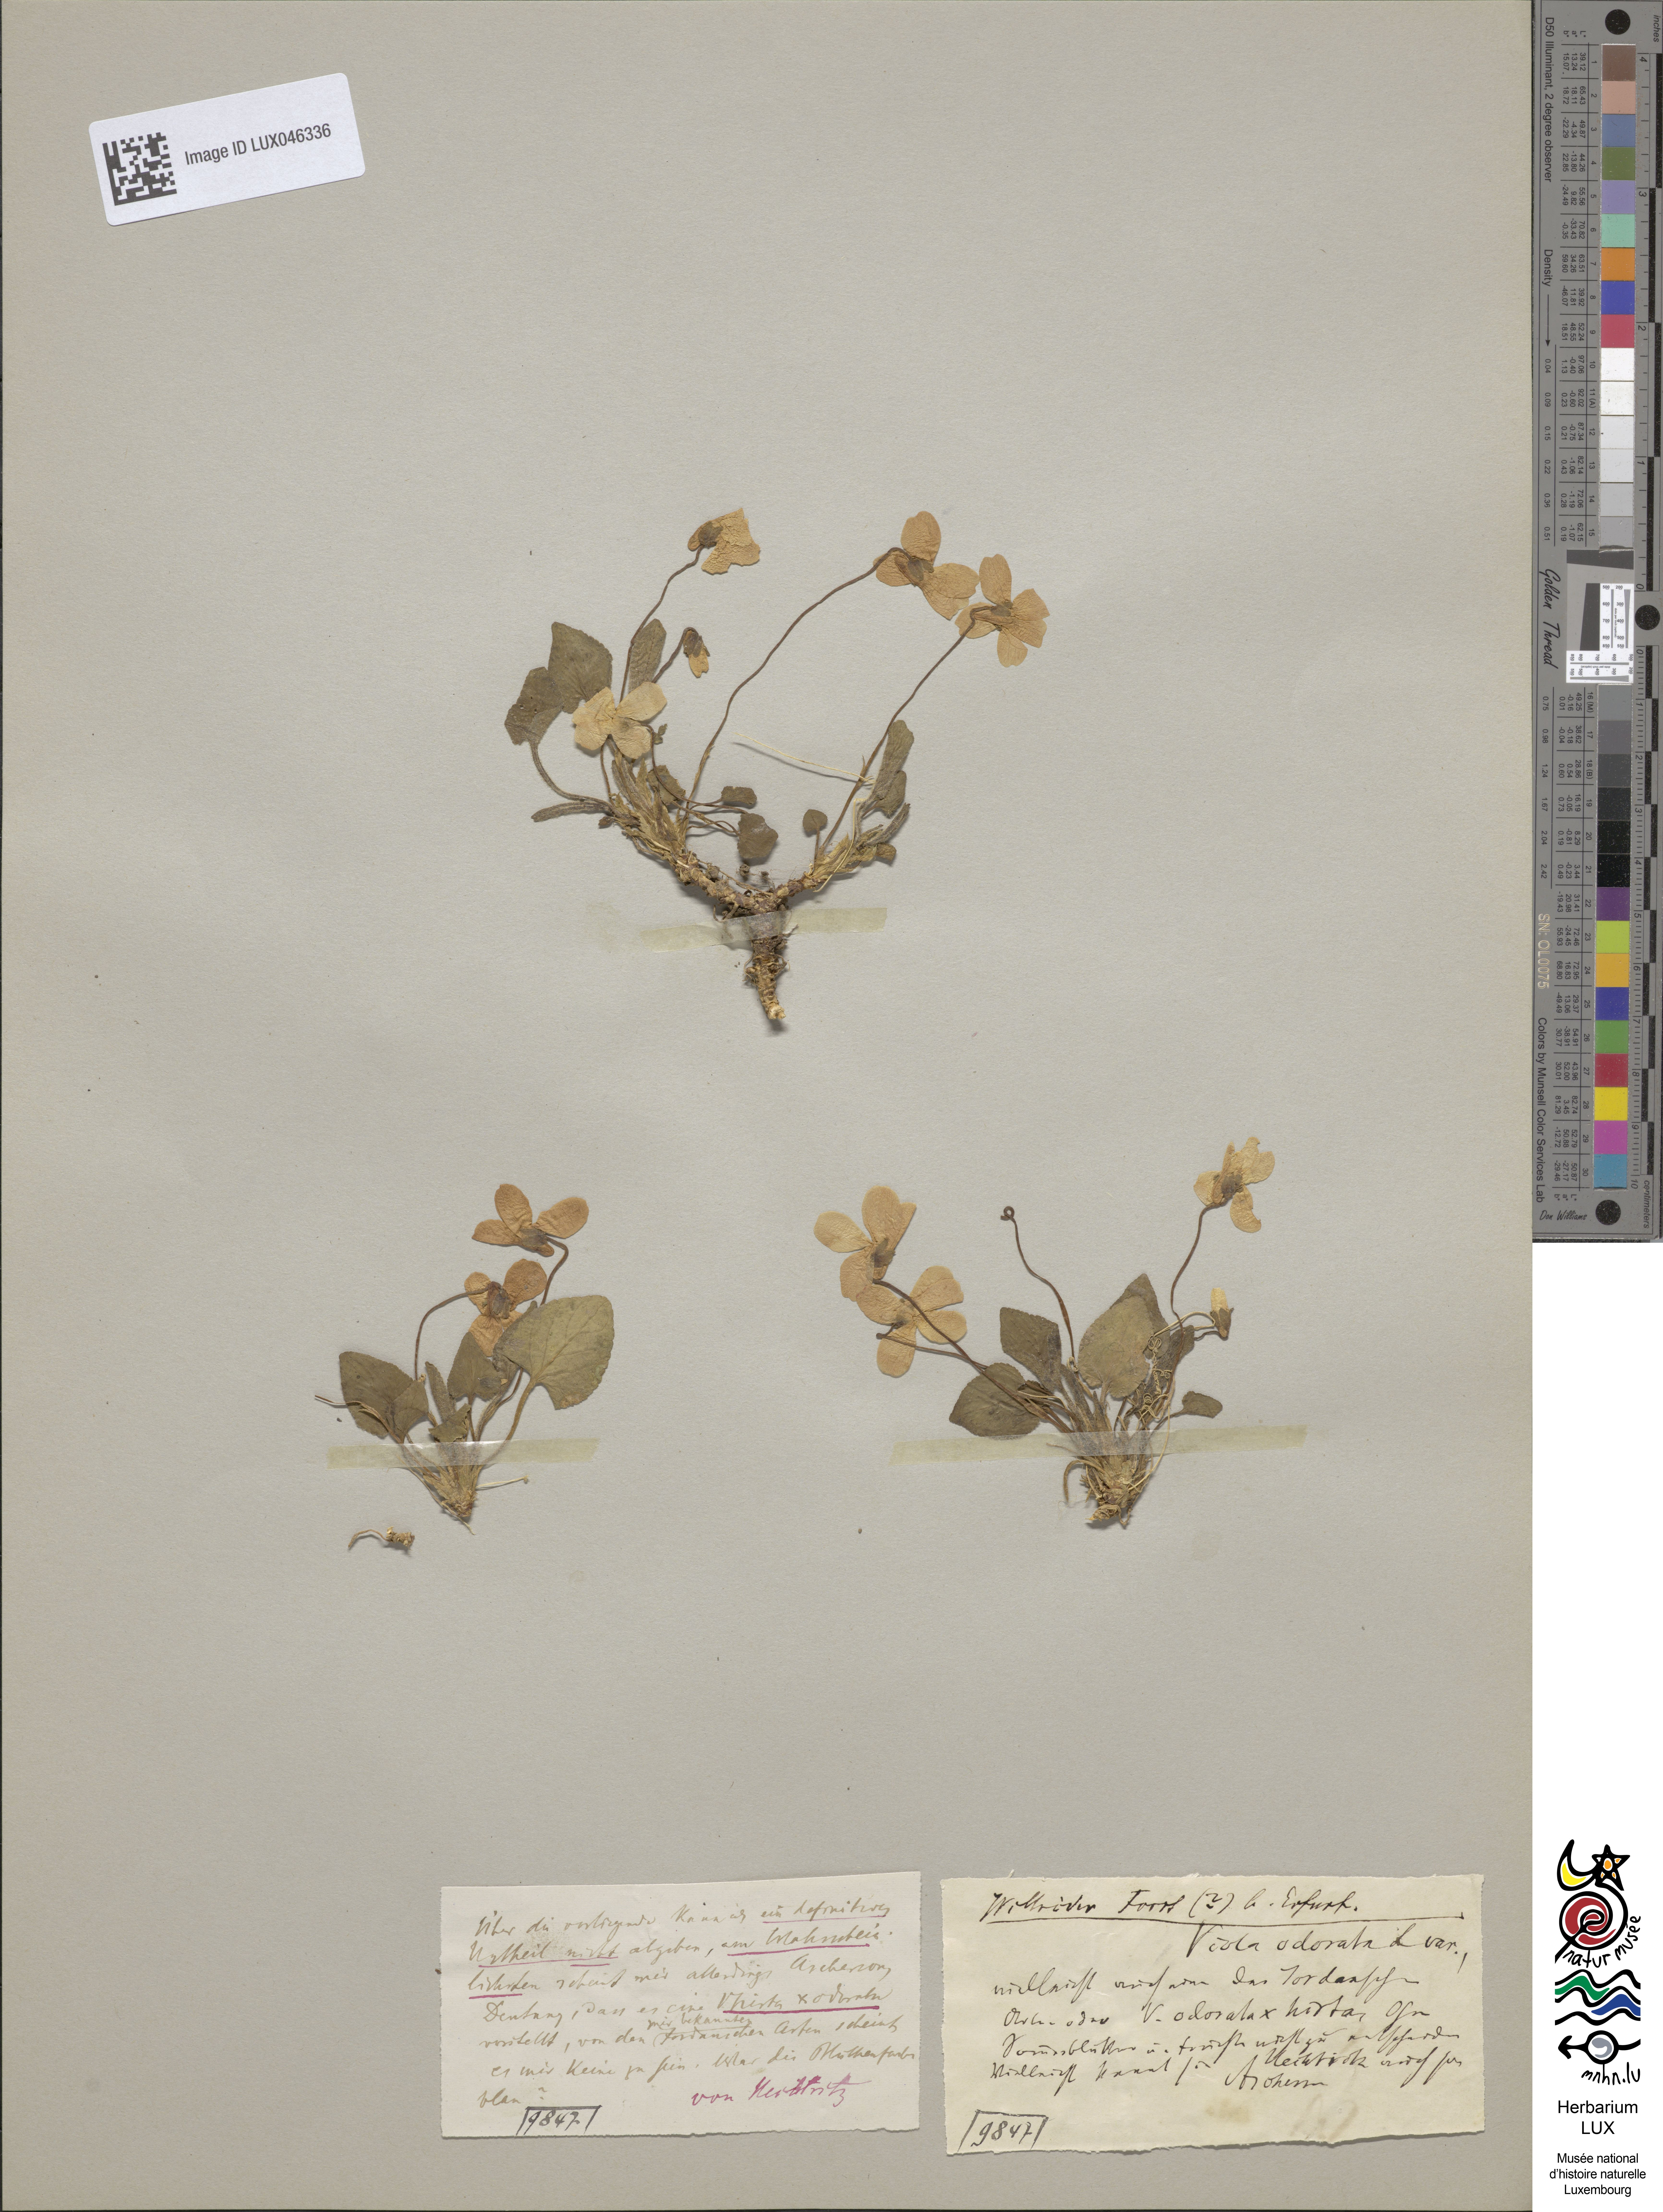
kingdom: Plantae
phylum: Tracheophyta
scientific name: Tracheophyta
